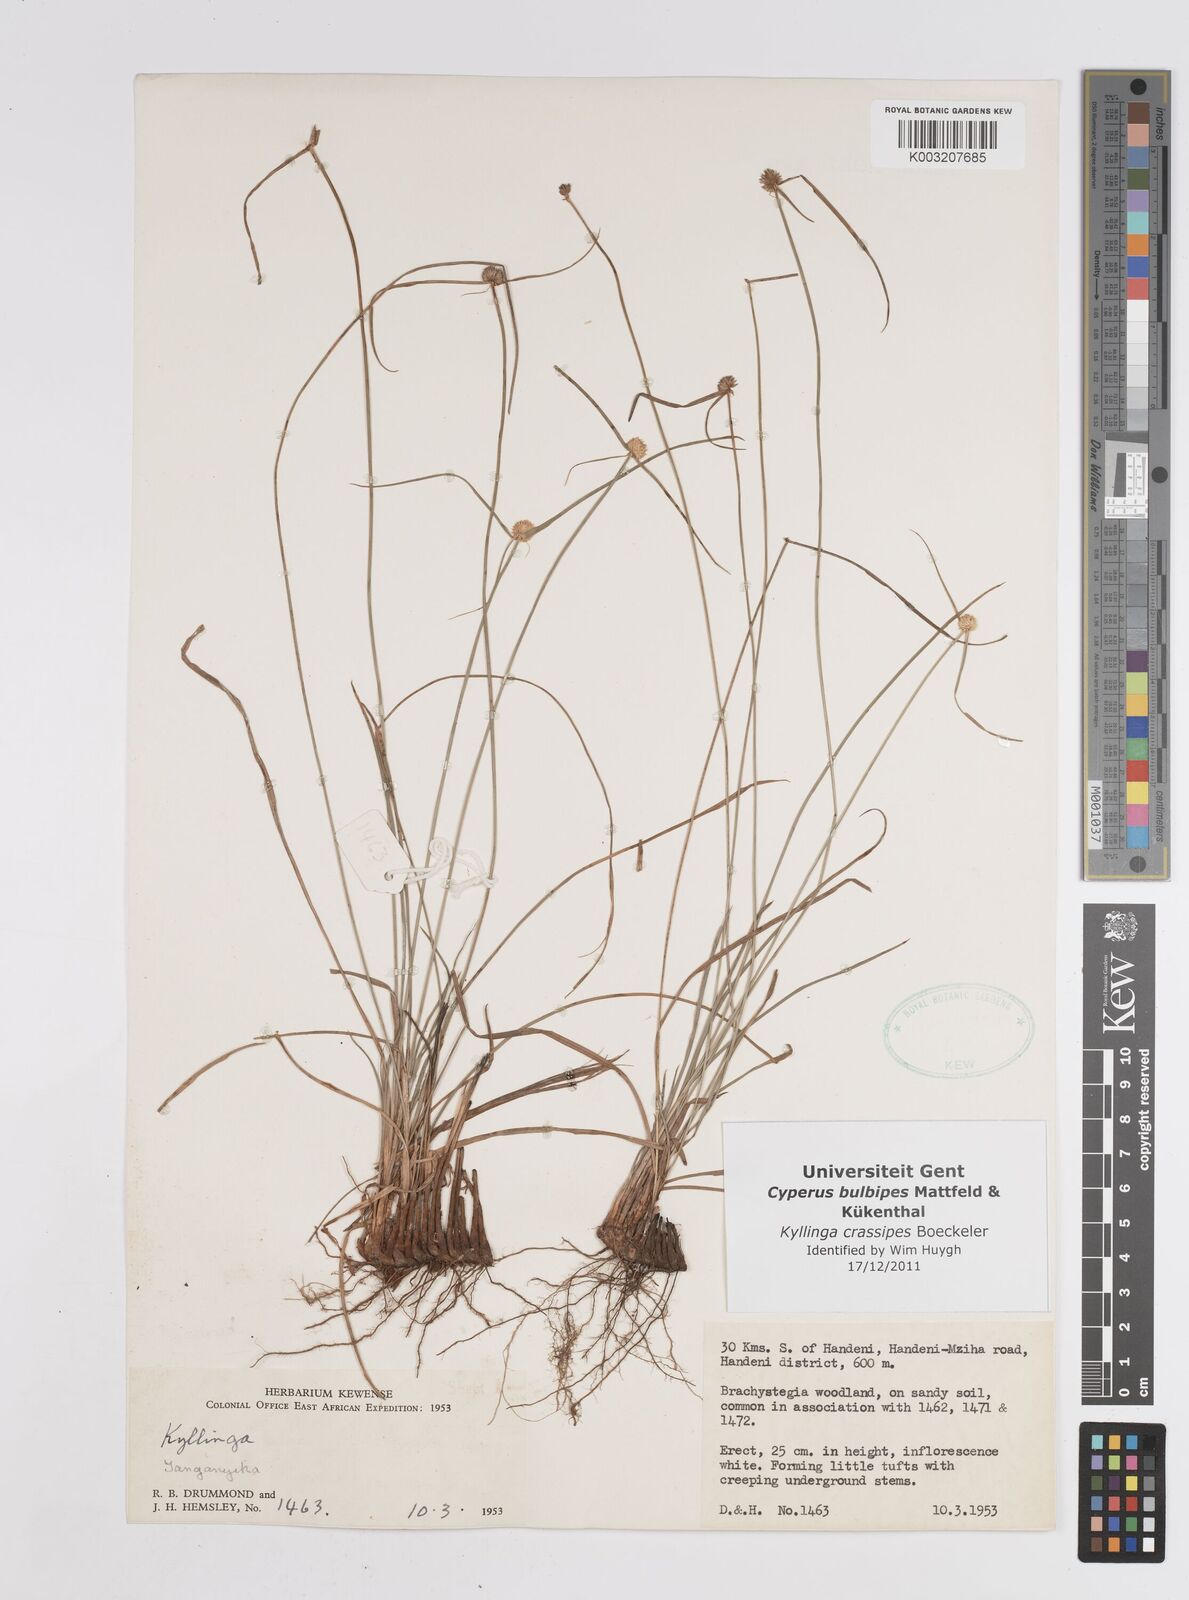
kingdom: Plantae
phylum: Tracheophyta
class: Liliopsida
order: Poales
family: Cyperaceae
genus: Cyperus
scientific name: Cyperus crassipes
